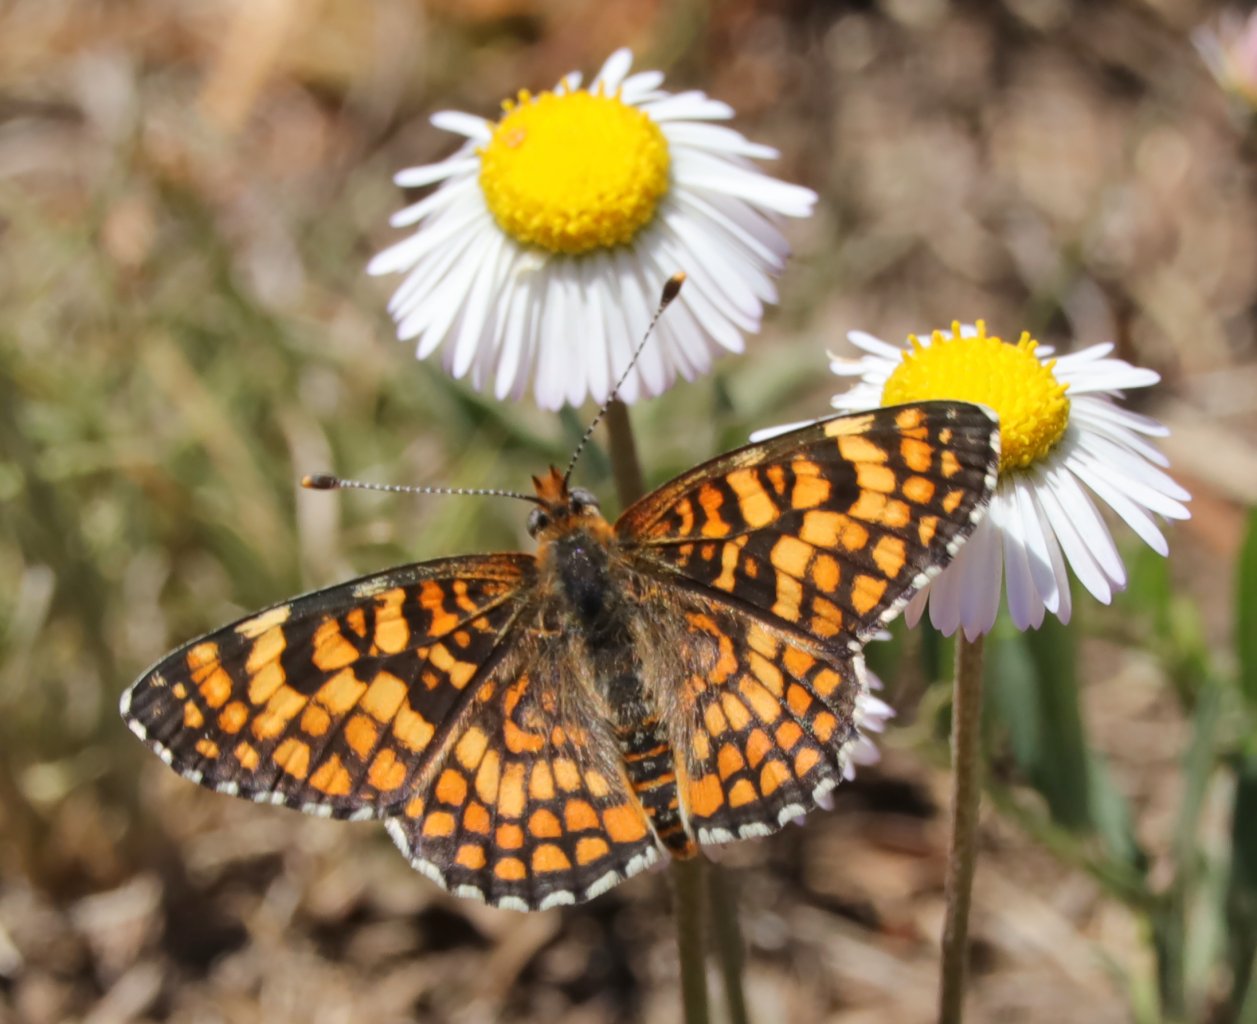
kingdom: Animalia
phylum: Arthropoda
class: Insecta
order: Lepidoptera
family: Nymphalidae
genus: Poladryas
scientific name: Poladryas minuta
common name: Arachne Checkerspot
